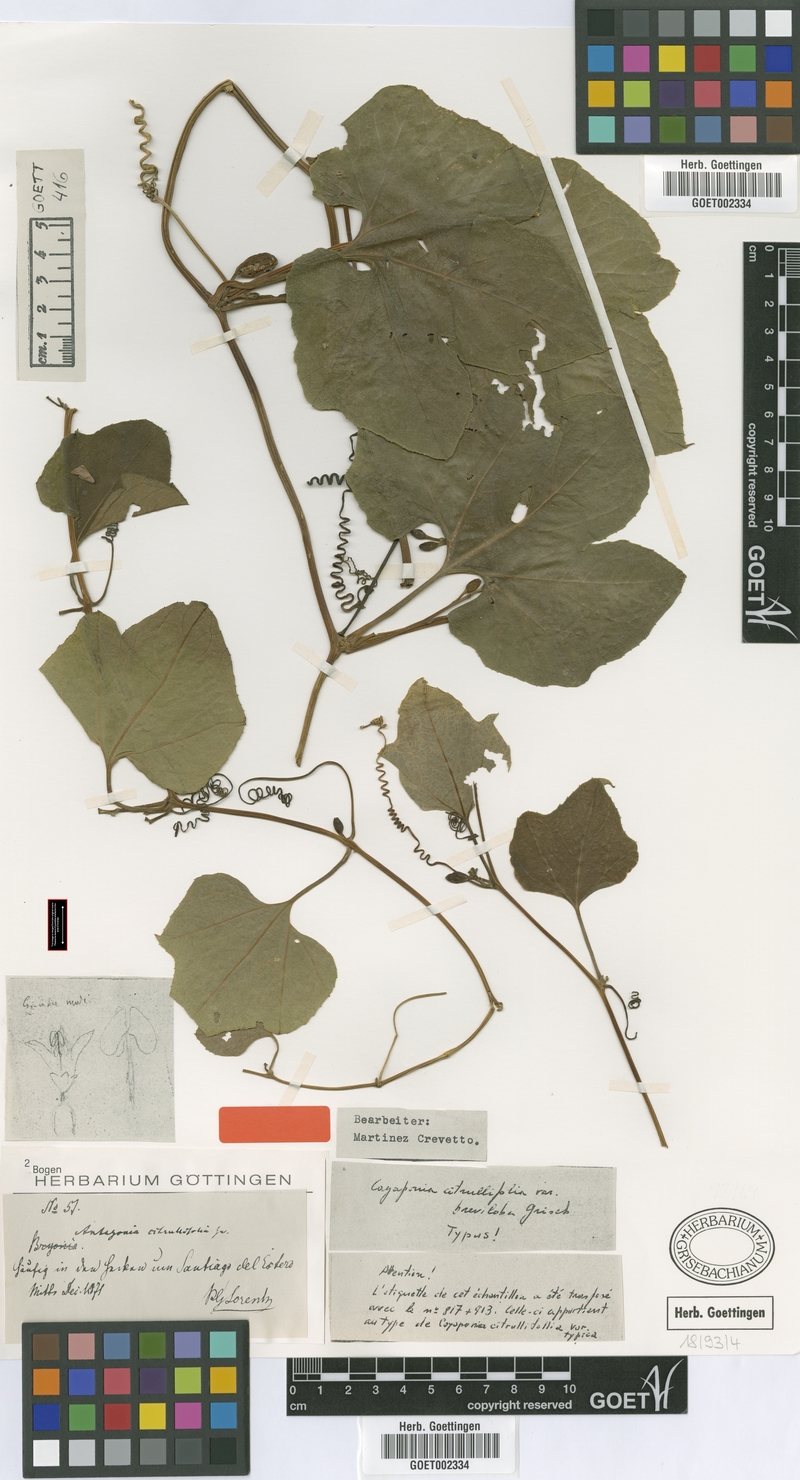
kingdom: Plantae
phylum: Tracheophyta
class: Magnoliopsida
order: Cucurbitales
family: Cucurbitaceae
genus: Cayaponia
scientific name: Cayaponia breviloba
